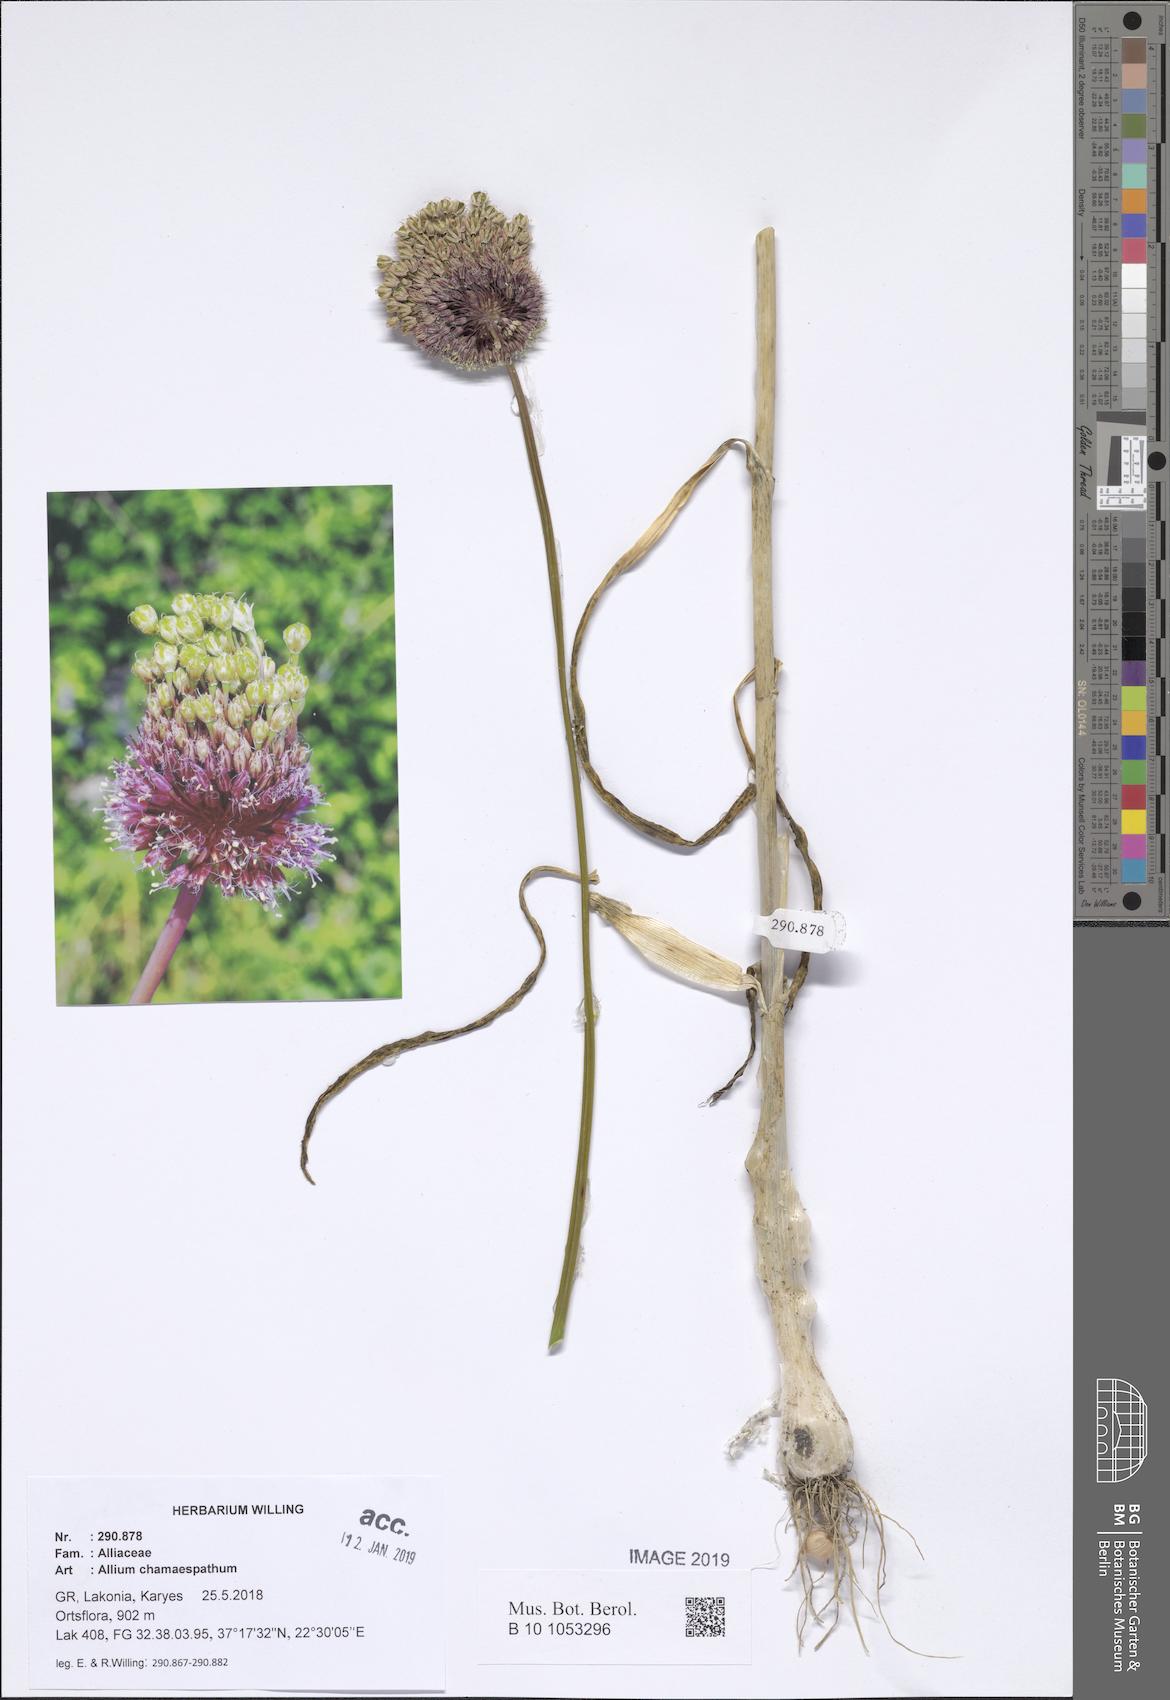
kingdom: Plantae
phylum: Tracheophyta
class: Liliopsida
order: Asparagales
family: Amaryllidaceae
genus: Allium
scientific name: Allium amethystinum
